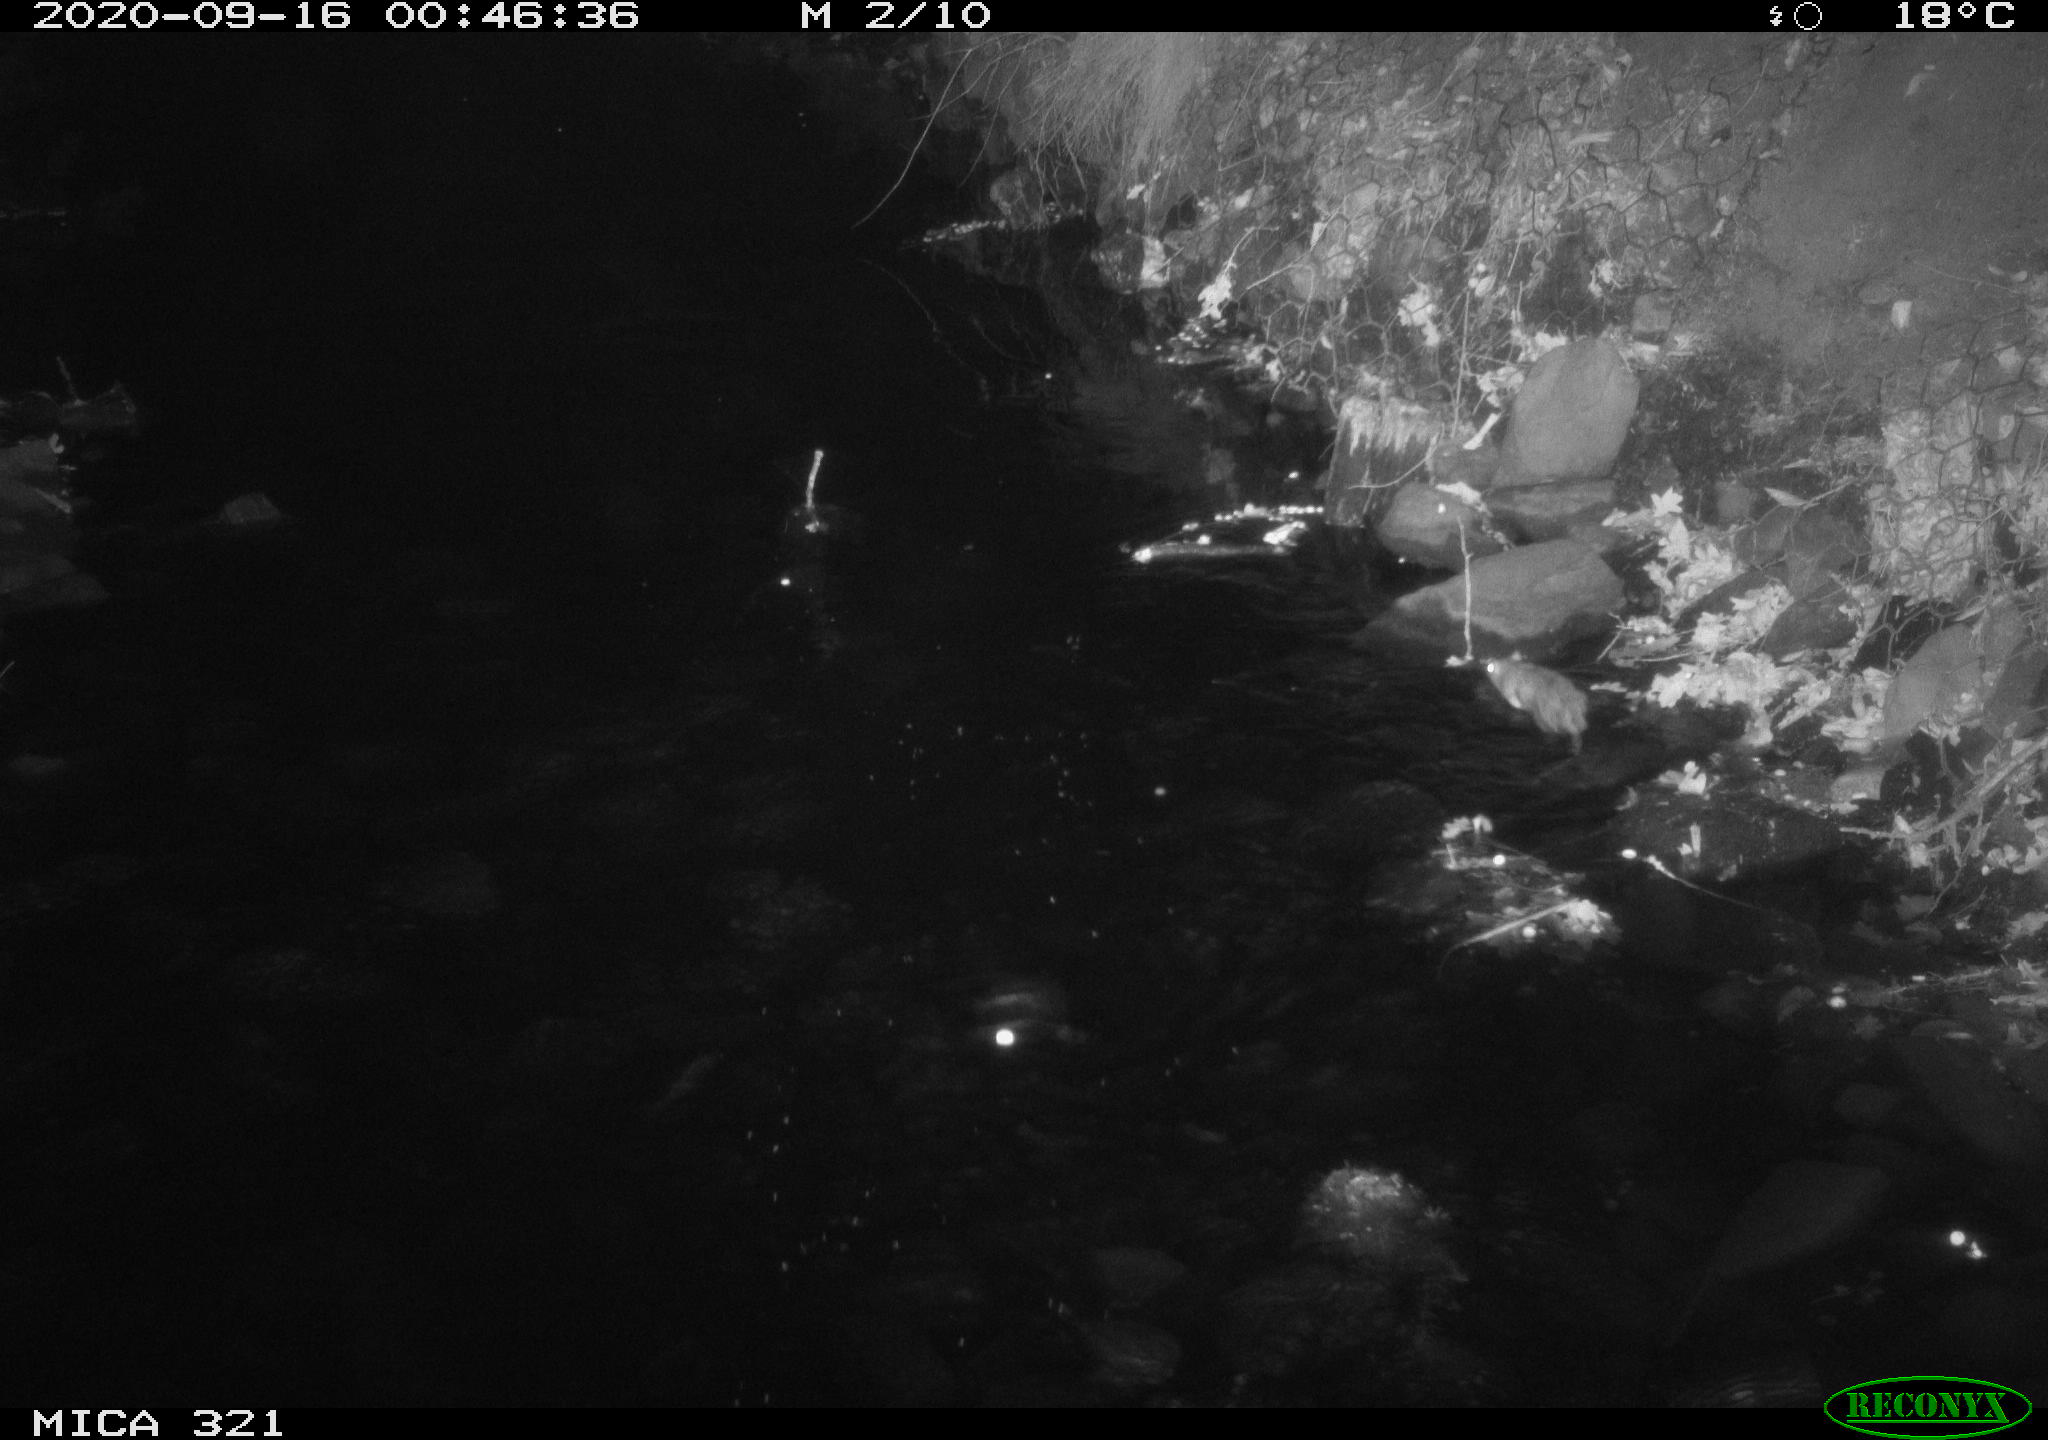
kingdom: Animalia
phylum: Chordata
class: Mammalia
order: Rodentia
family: Muridae
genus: Rattus
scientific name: Rattus norvegicus
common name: Brown rat
